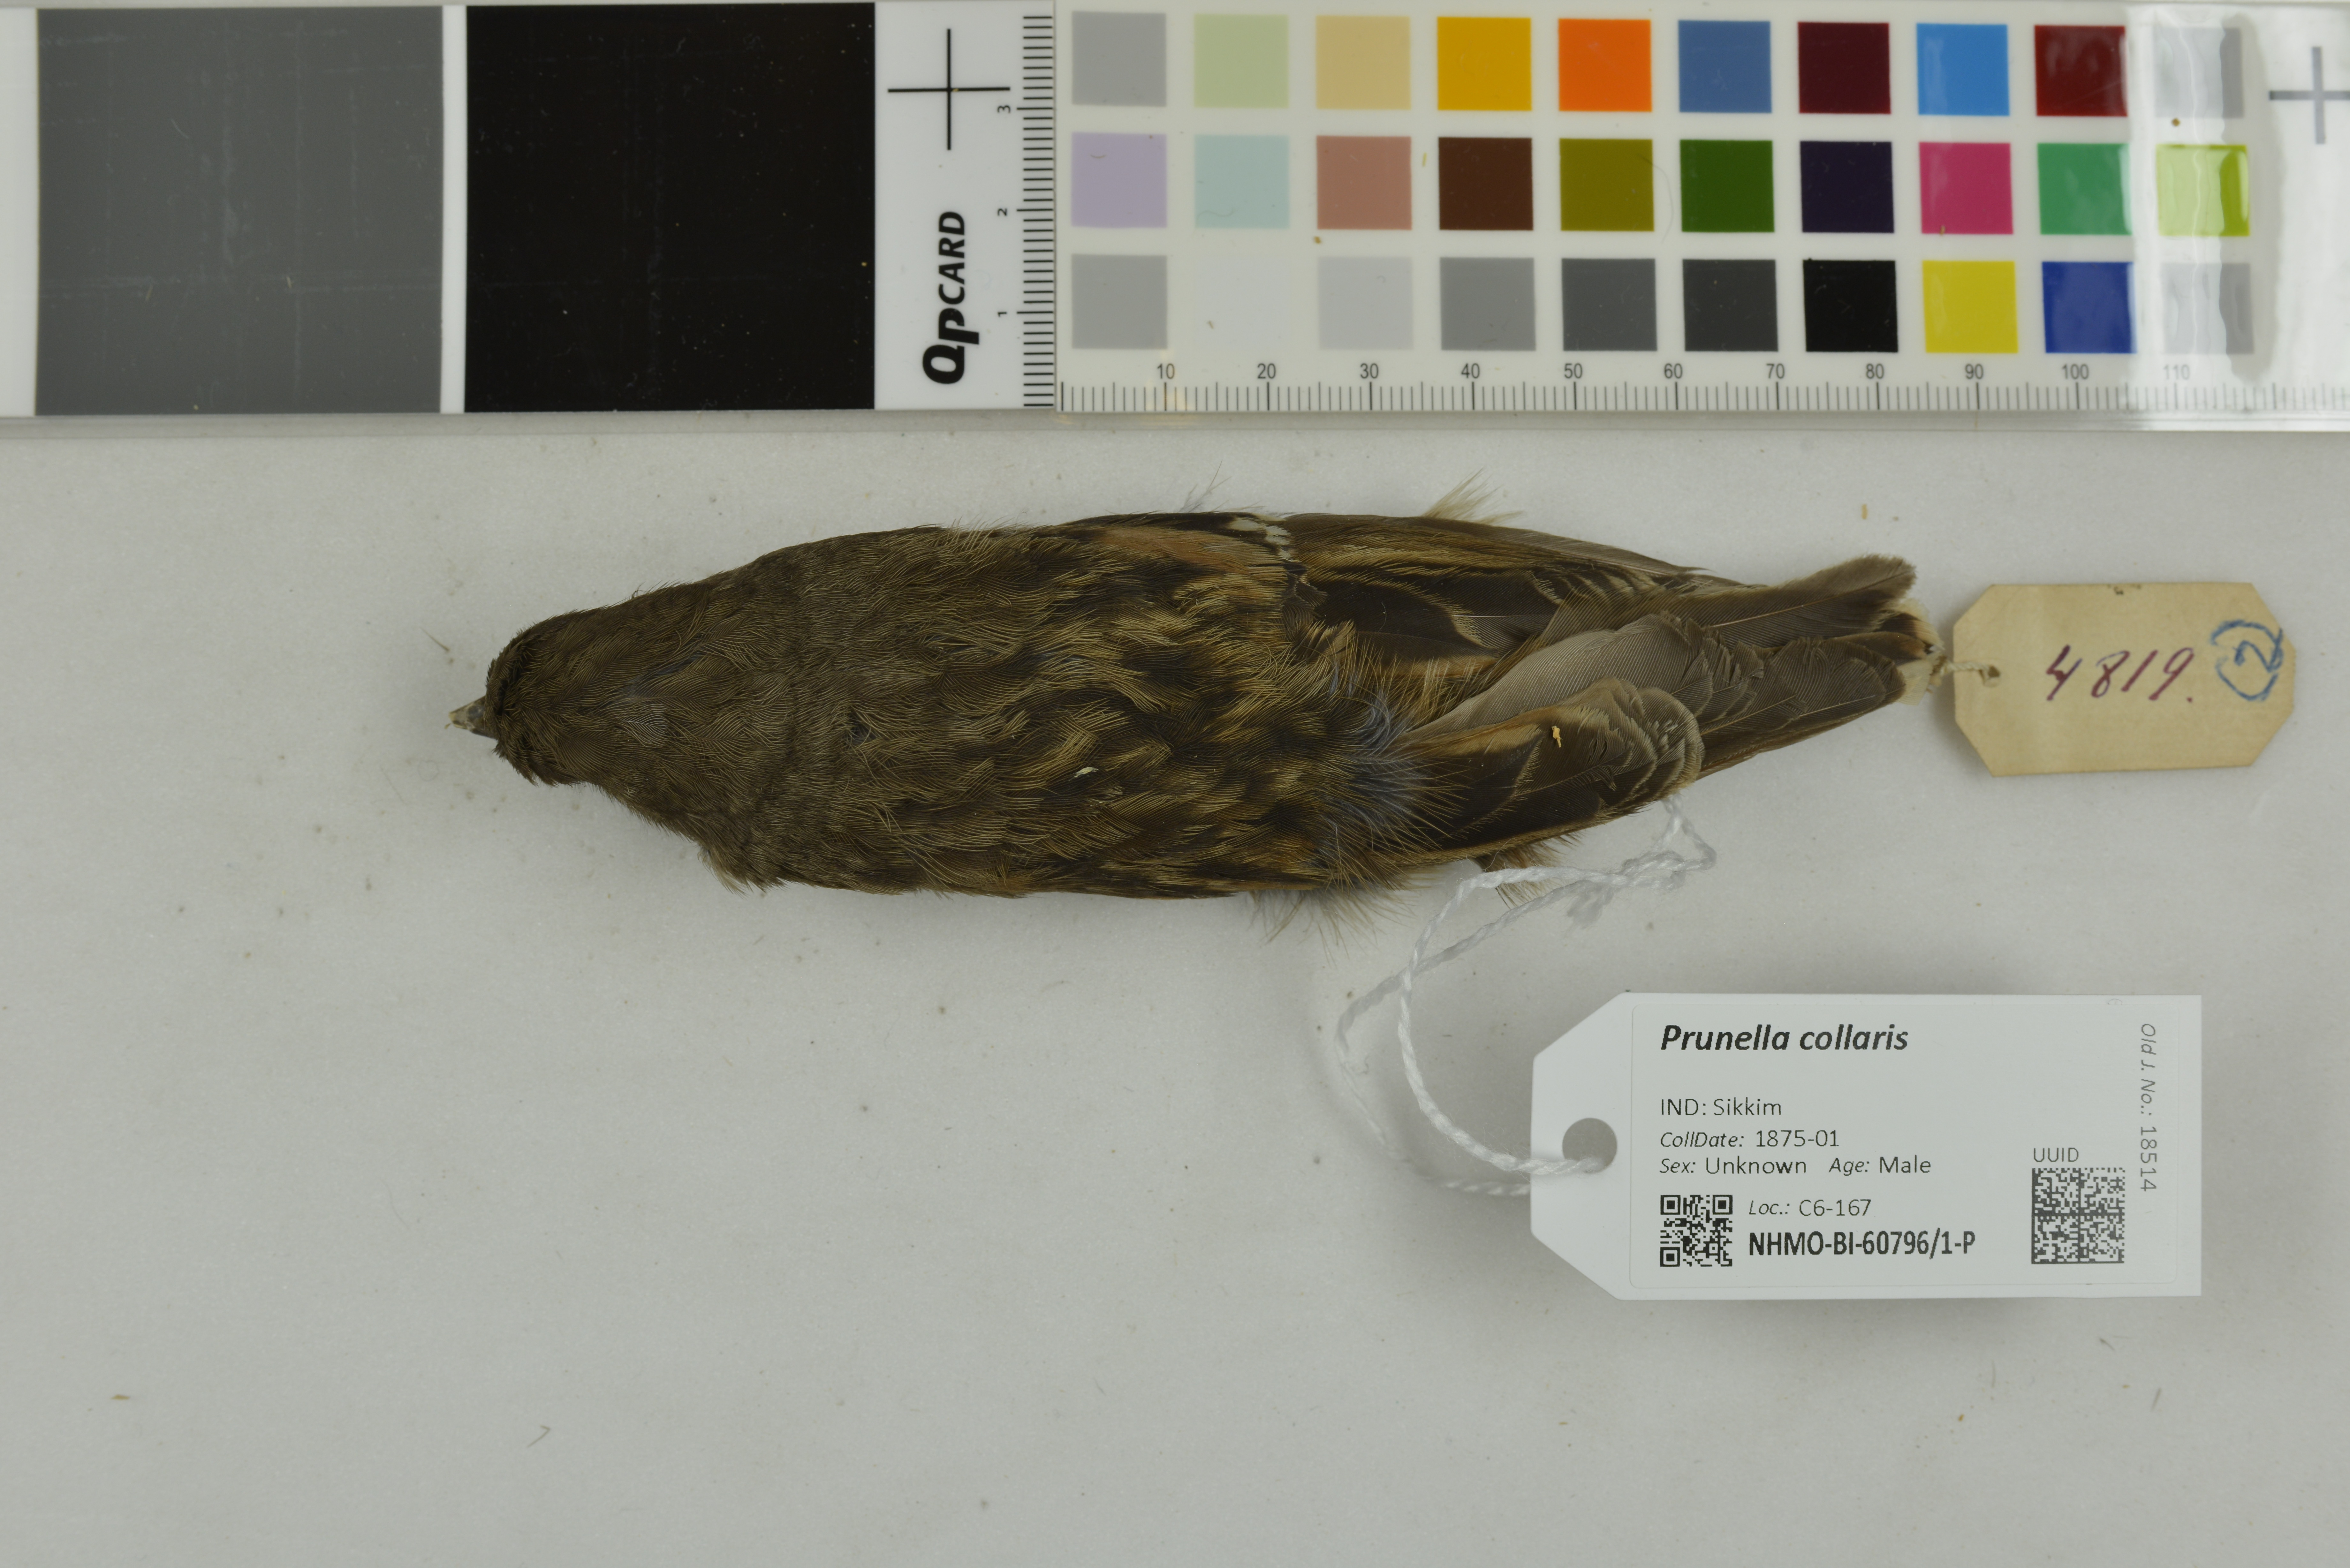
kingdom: Animalia
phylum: Chordata
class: Aves
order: Passeriformes
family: Prunellidae
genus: Prunella
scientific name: Prunella collaris
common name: Alpine accentor
